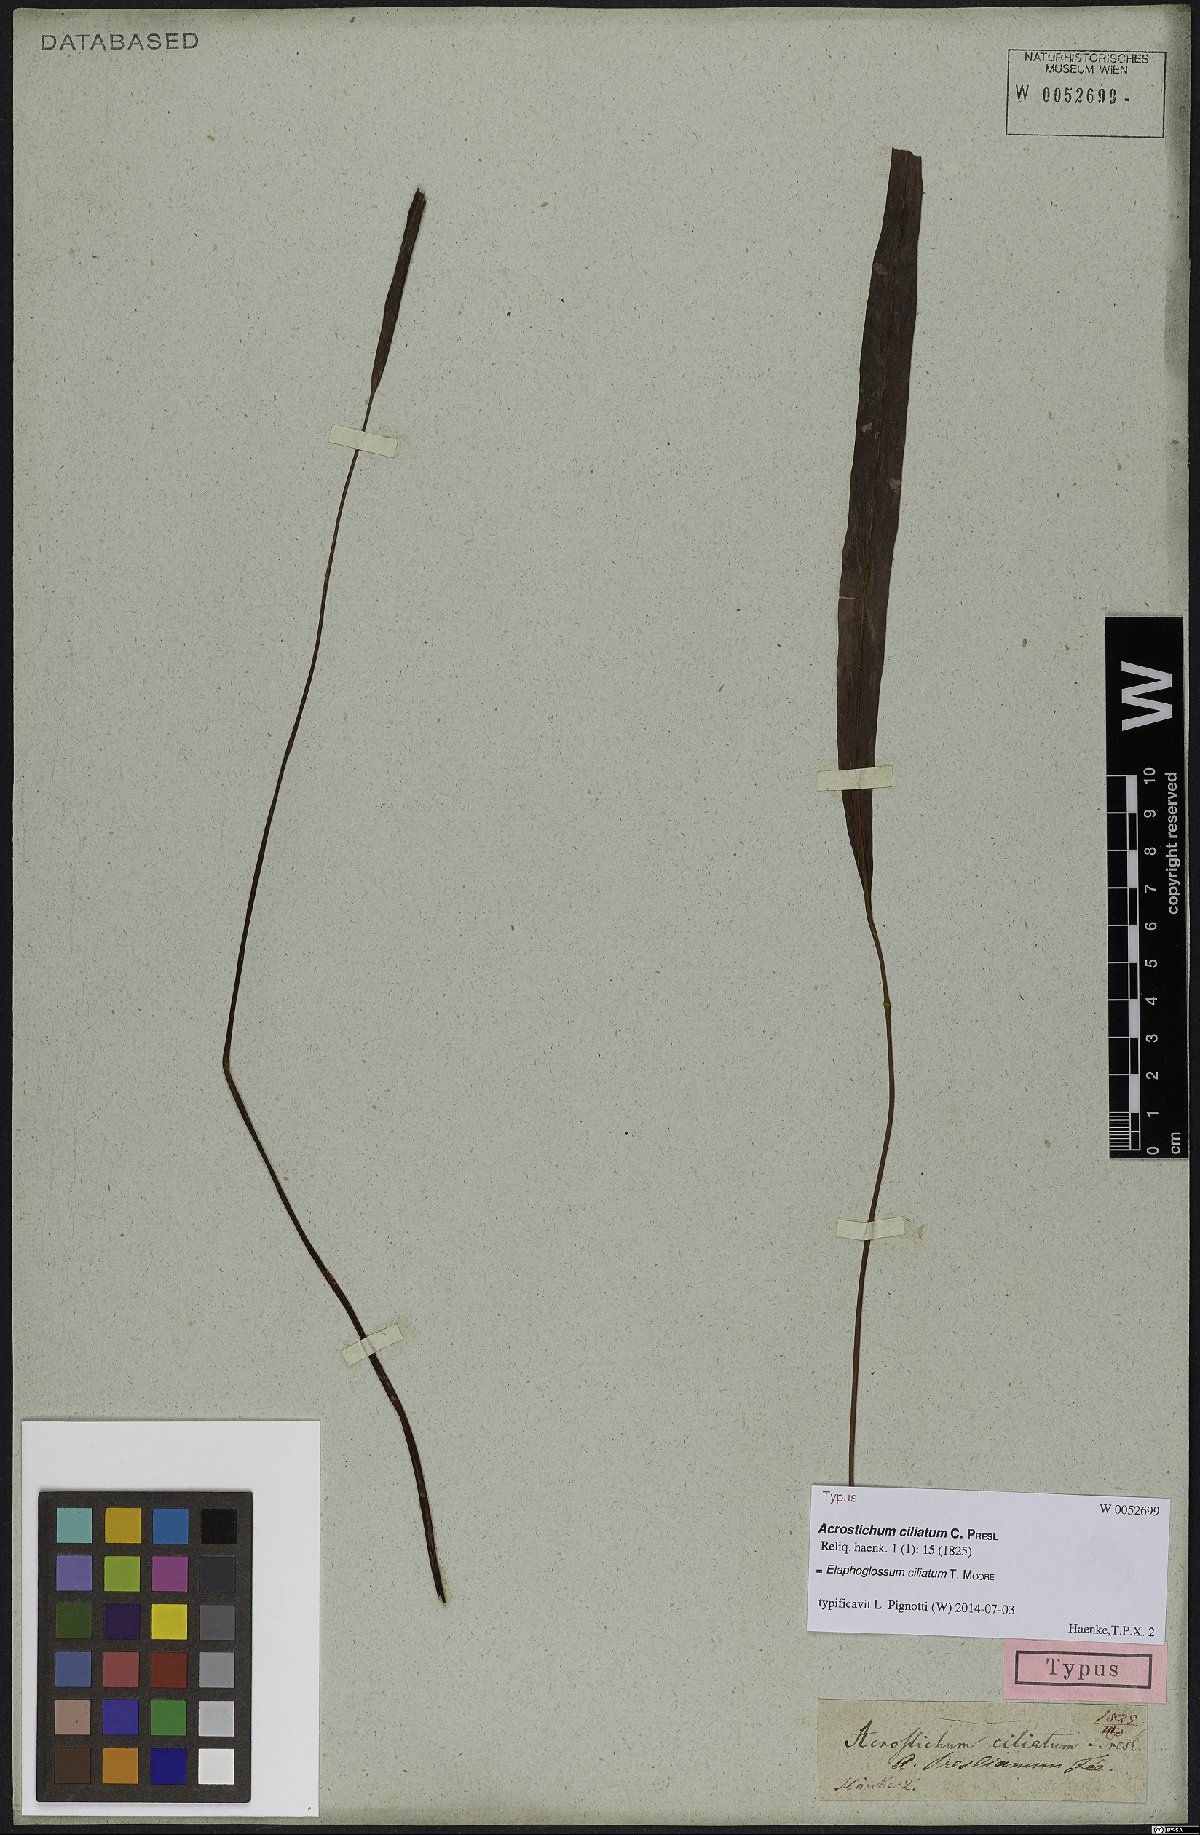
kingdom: Plantae
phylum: Tracheophyta
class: Polypodiopsida
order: Polypodiales
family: Dryopteridaceae
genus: Elaphoglossum
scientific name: Elaphoglossum ciliatum
